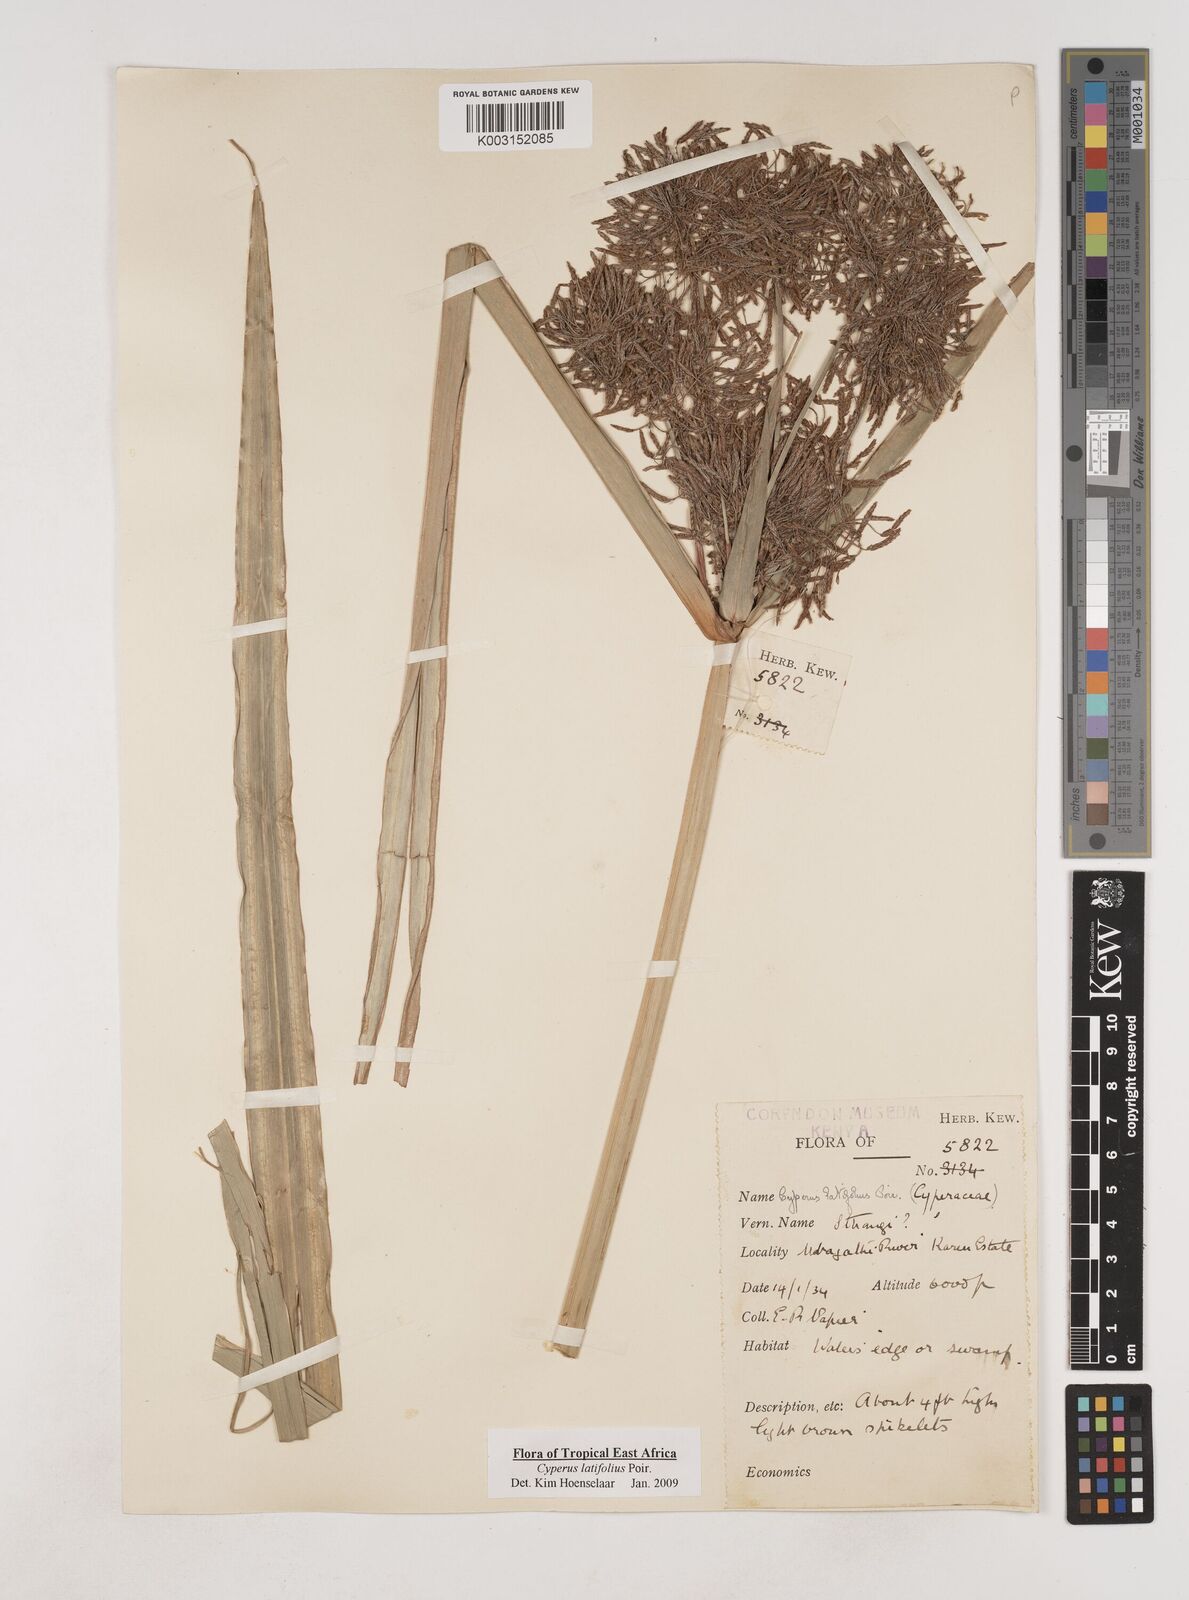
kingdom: Plantae
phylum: Tracheophyta
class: Liliopsida
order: Poales
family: Cyperaceae
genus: Cyperus
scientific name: Cyperus latifolius
